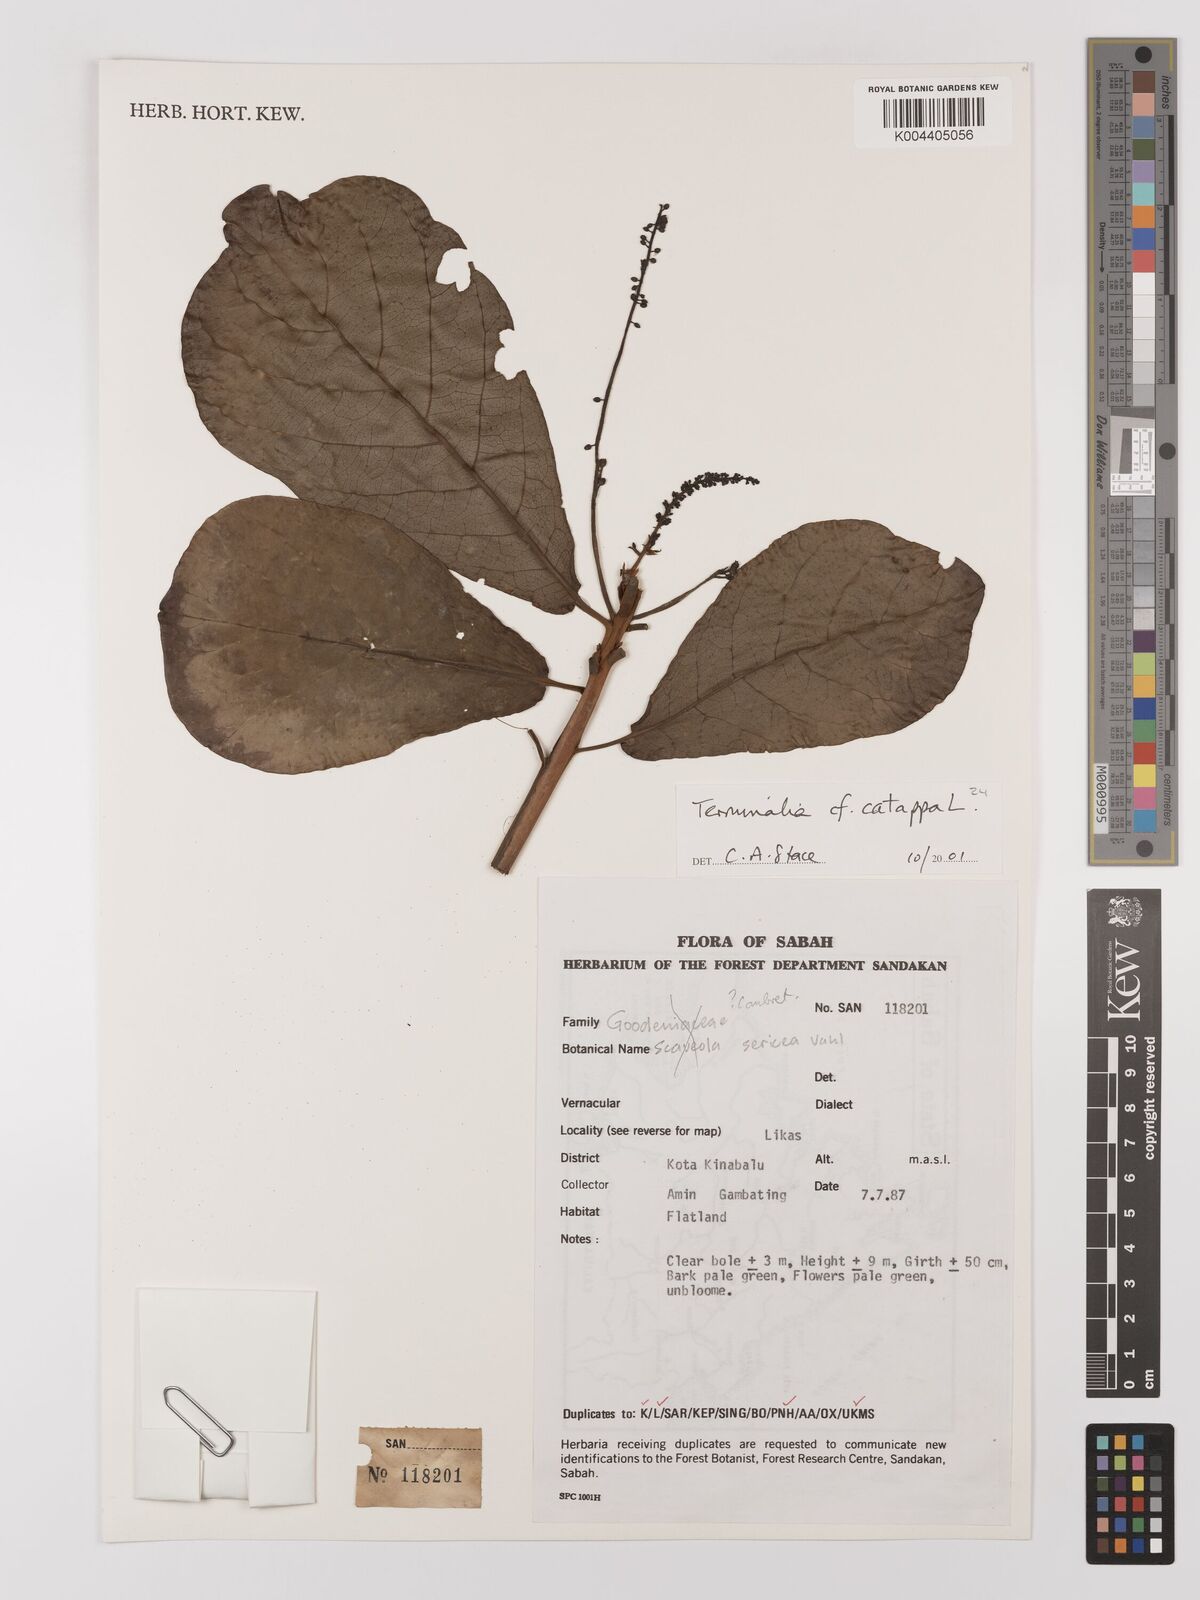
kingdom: Plantae
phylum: Tracheophyta
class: Magnoliopsida
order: Myrtales
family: Combretaceae
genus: Terminalia
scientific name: Terminalia catappa
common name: Tropical almond
